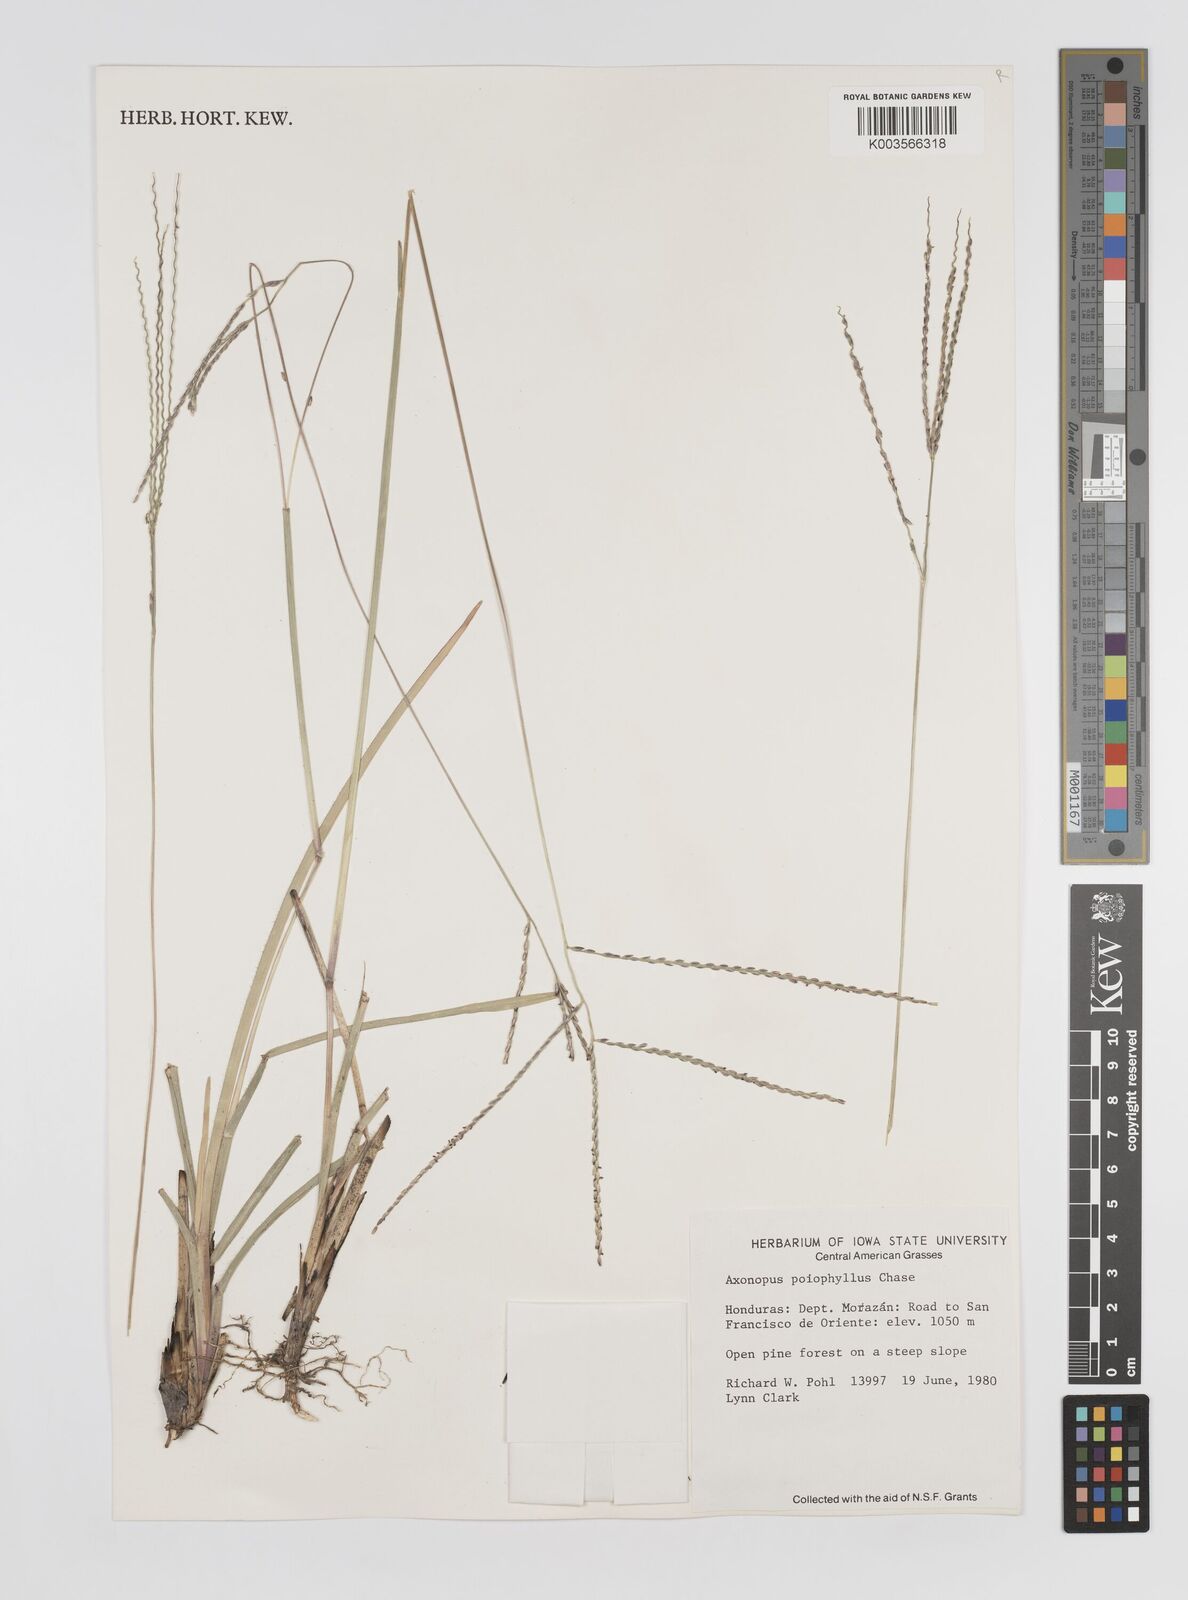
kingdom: Plantae
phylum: Tracheophyta
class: Liliopsida
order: Poales
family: Poaceae
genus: Axonopus
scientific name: Axonopus
